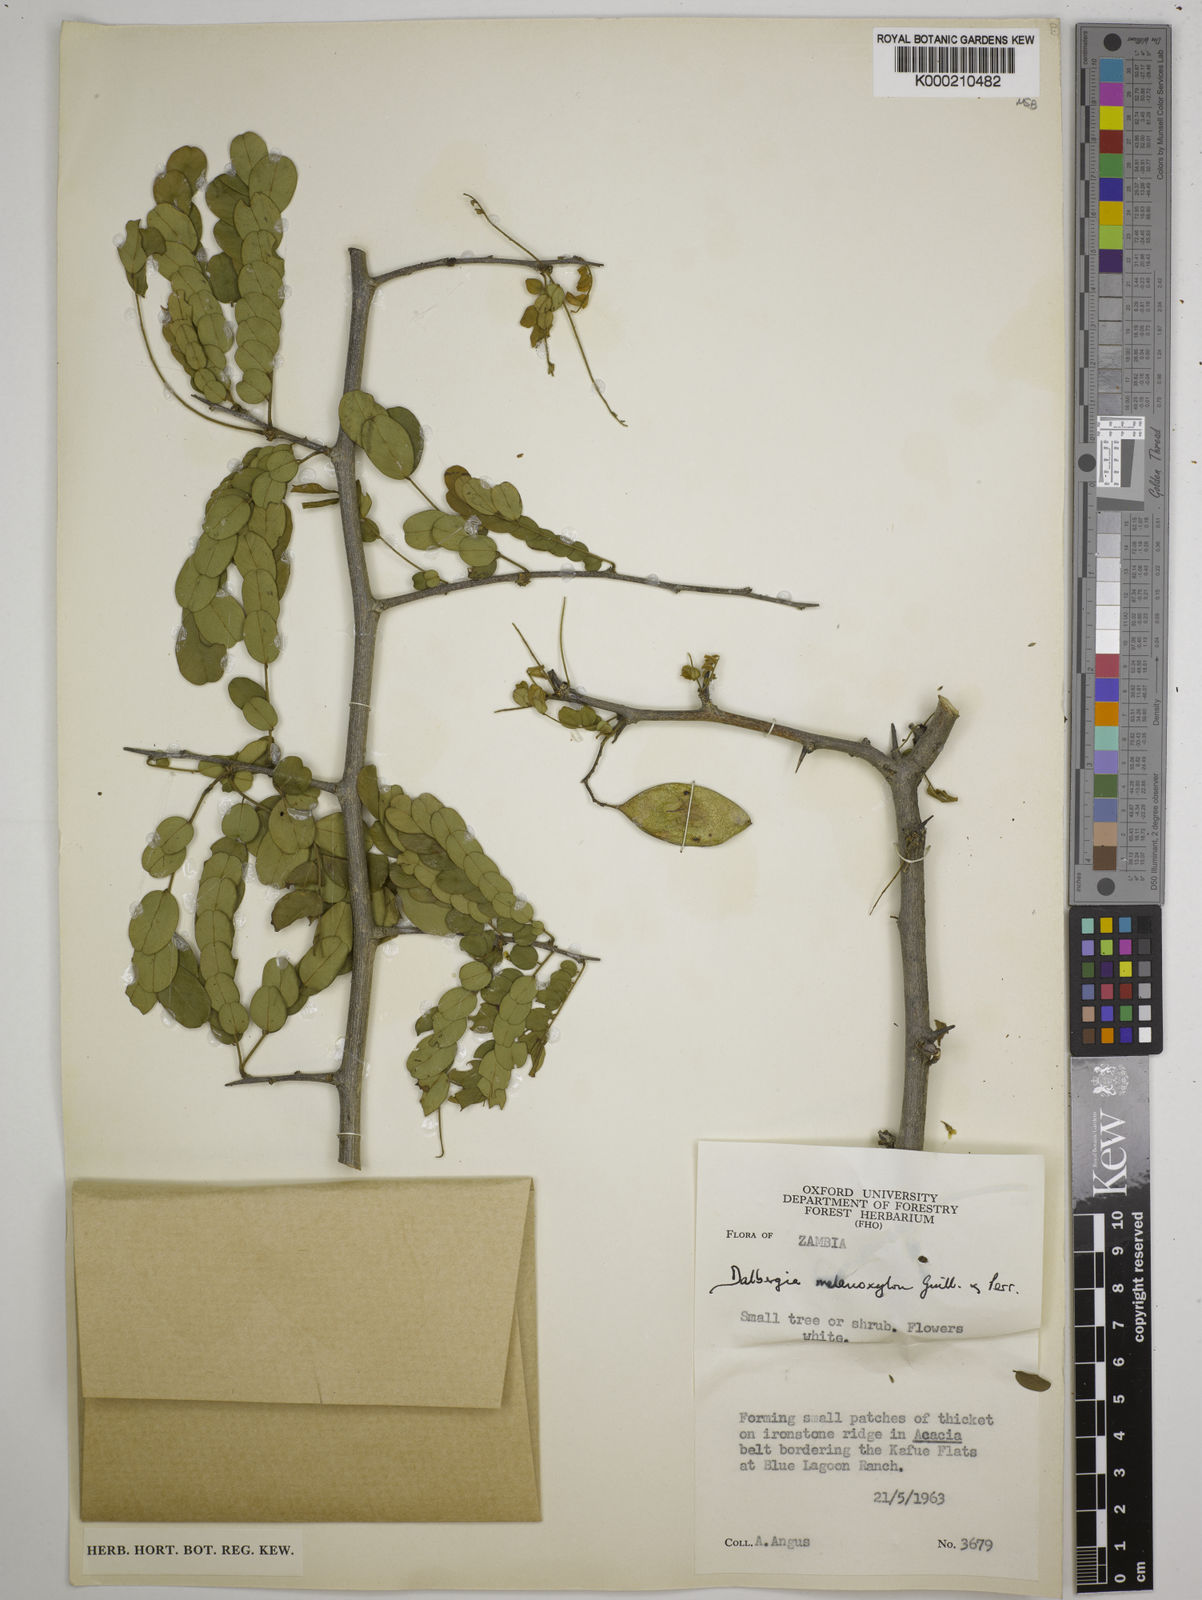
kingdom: Plantae
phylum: Tracheophyta
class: Magnoliopsida
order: Fabales
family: Fabaceae
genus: Dalbergia
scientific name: Dalbergia melanoxylon
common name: African blackwood
